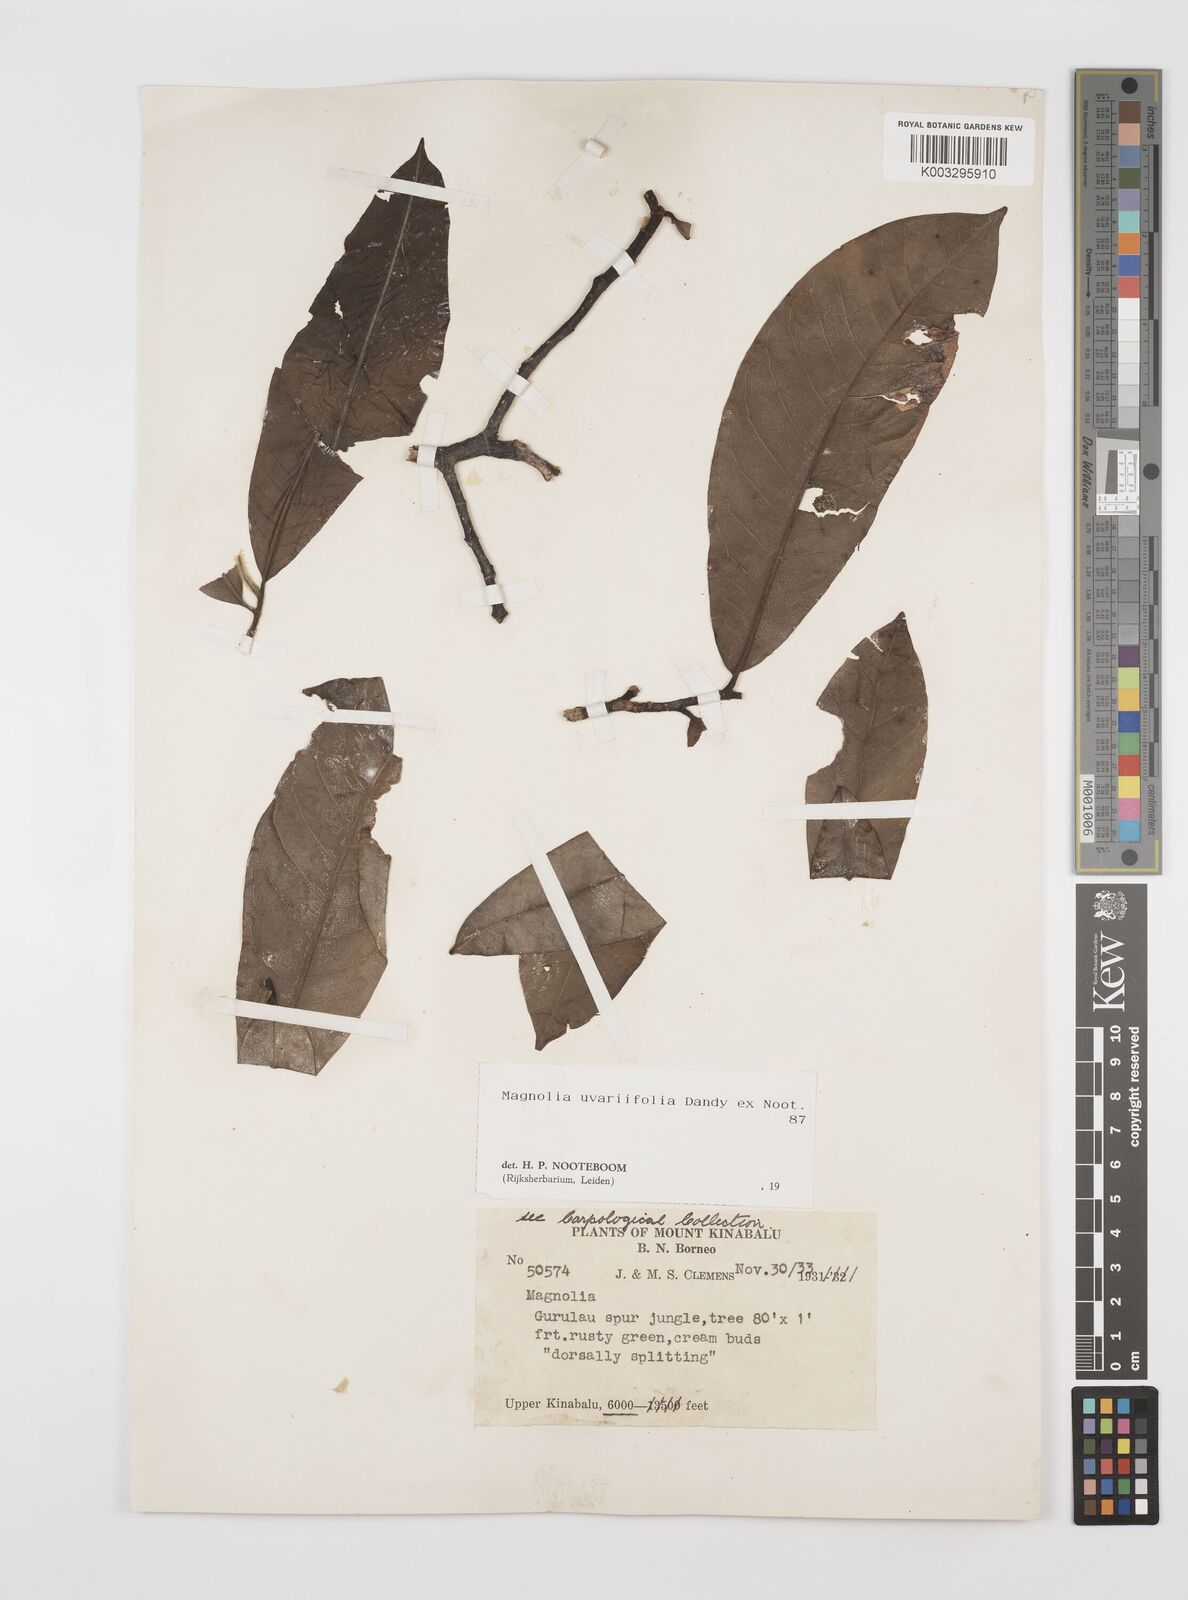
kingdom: Plantae
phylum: Tracheophyta
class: Magnoliopsida
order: Magnoliales
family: Magnoliaceae
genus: Magnolia
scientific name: Magnolia macklottii
